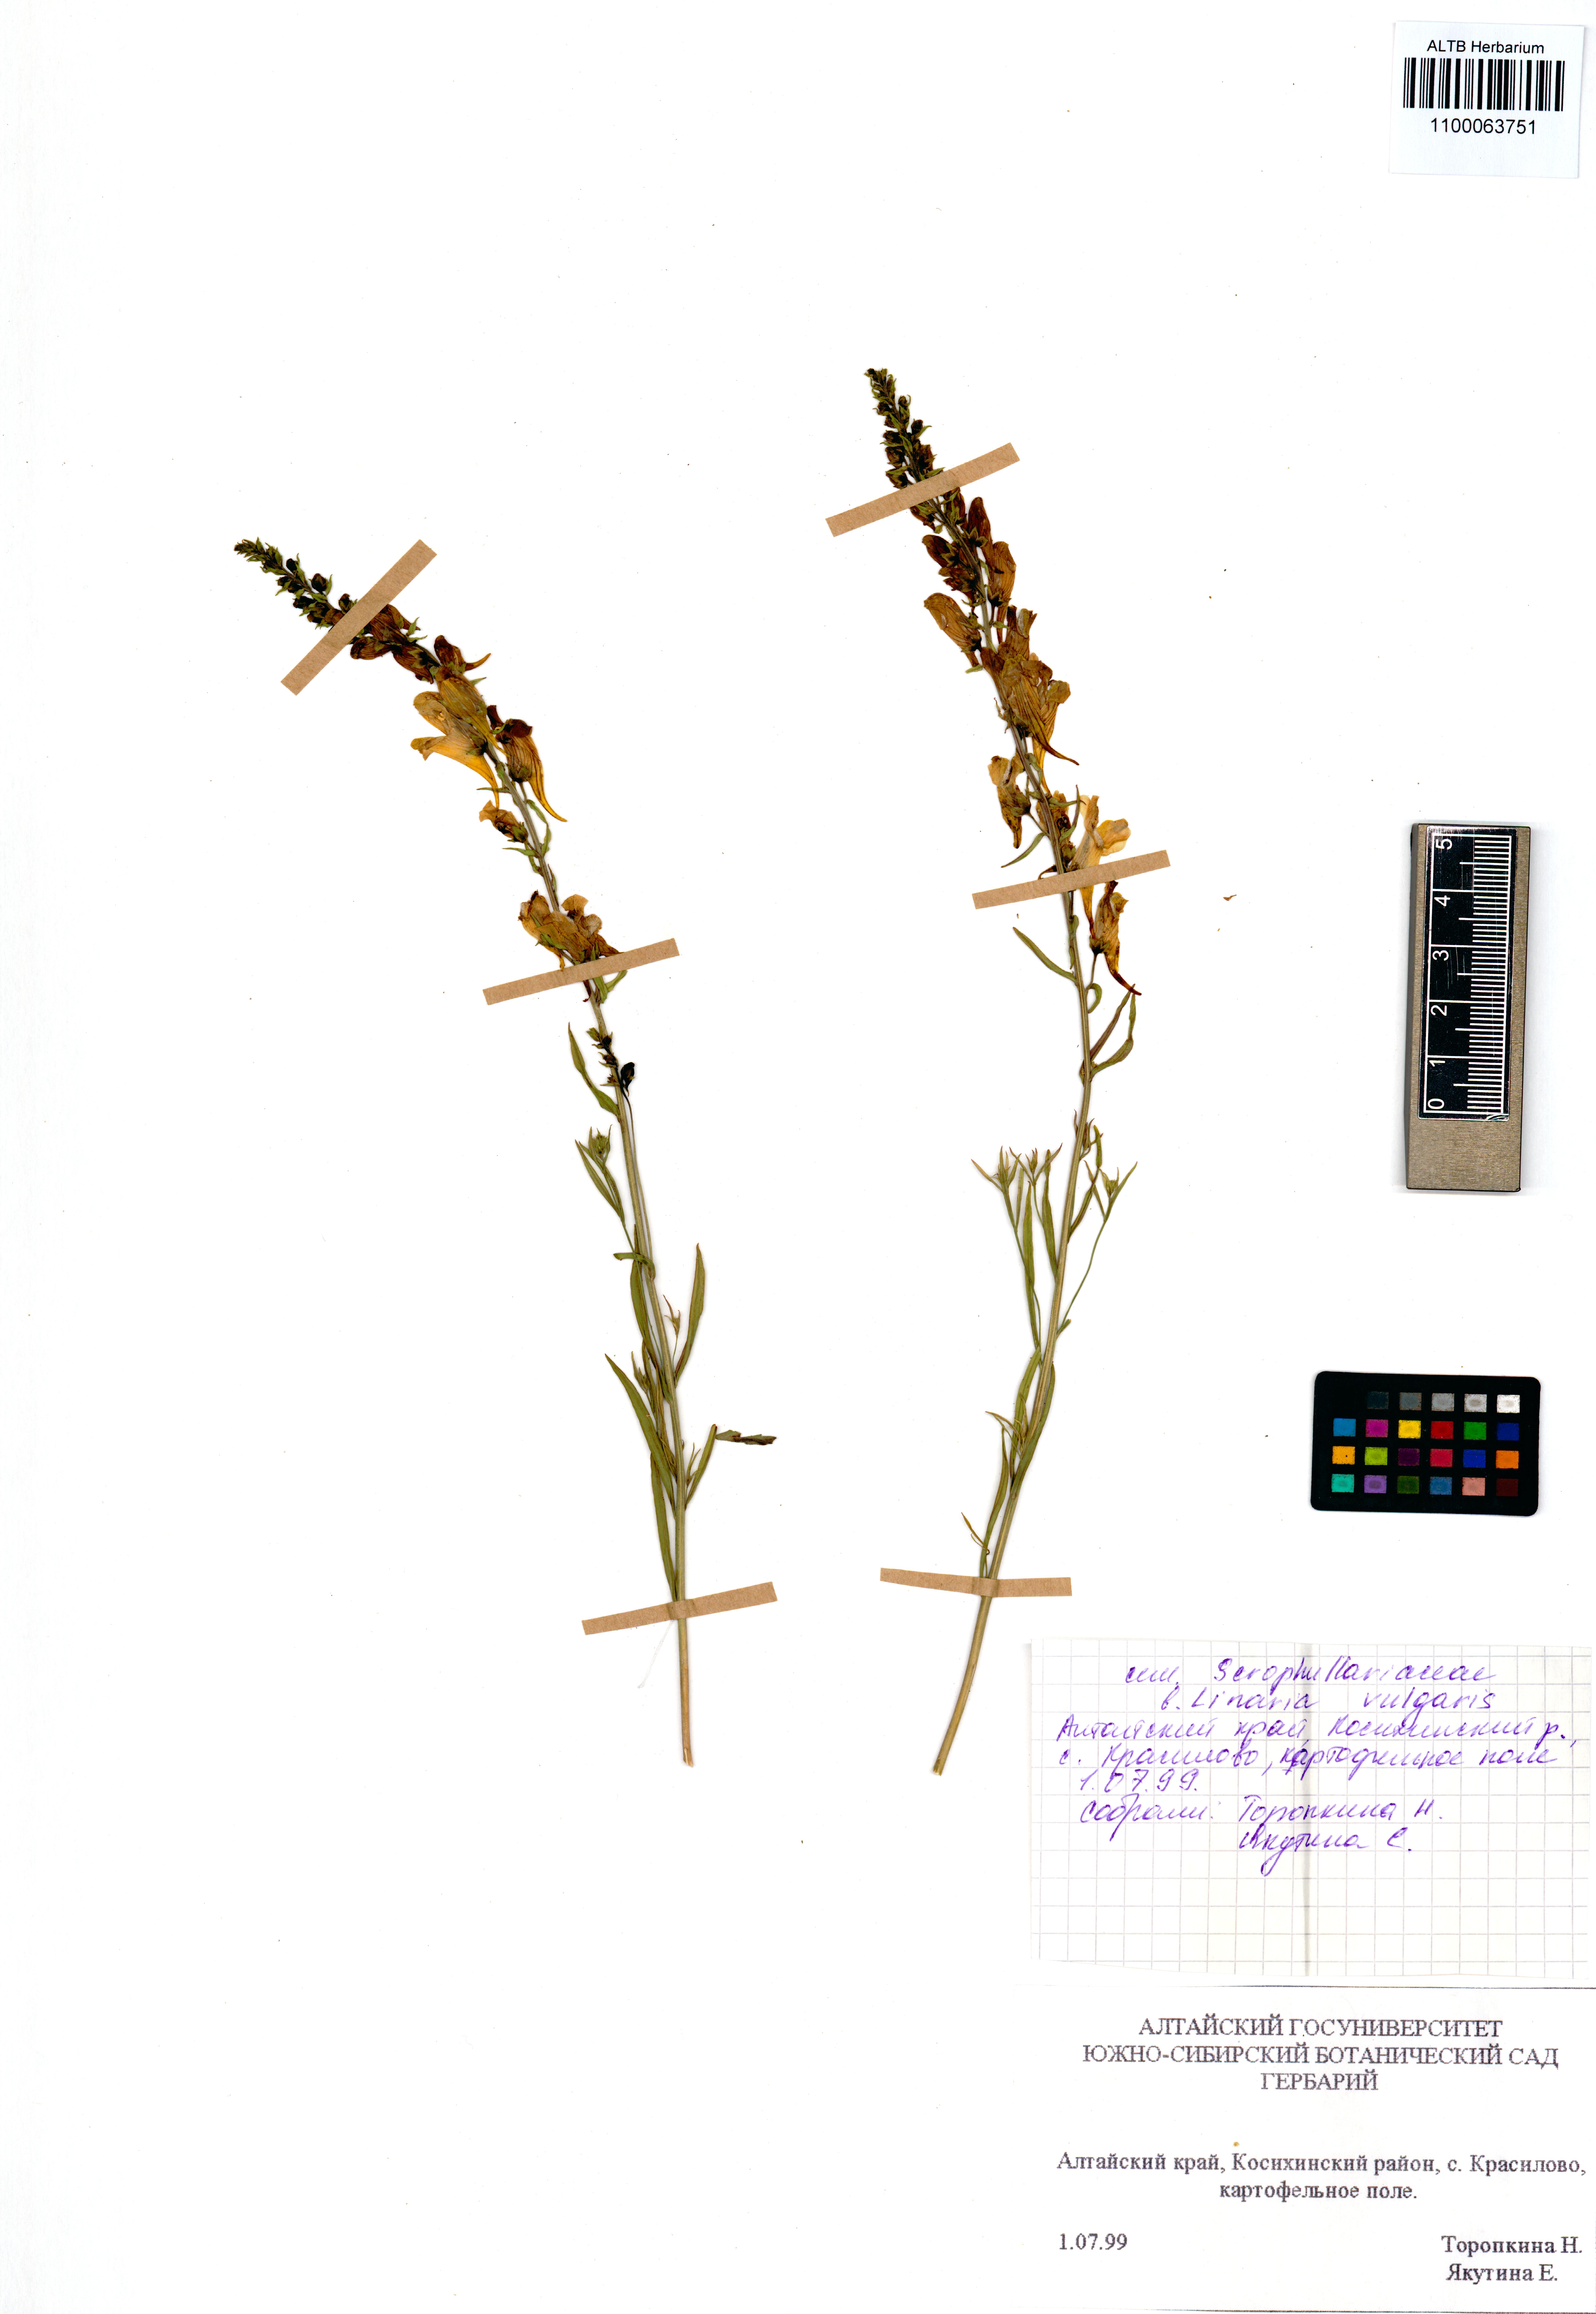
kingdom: Plantae
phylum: Tracheophyta
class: Magnoliopsida
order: Lamiales
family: Plantaginaceae
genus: Linaria
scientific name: Linaria vulgaris
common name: Butter and eggs
